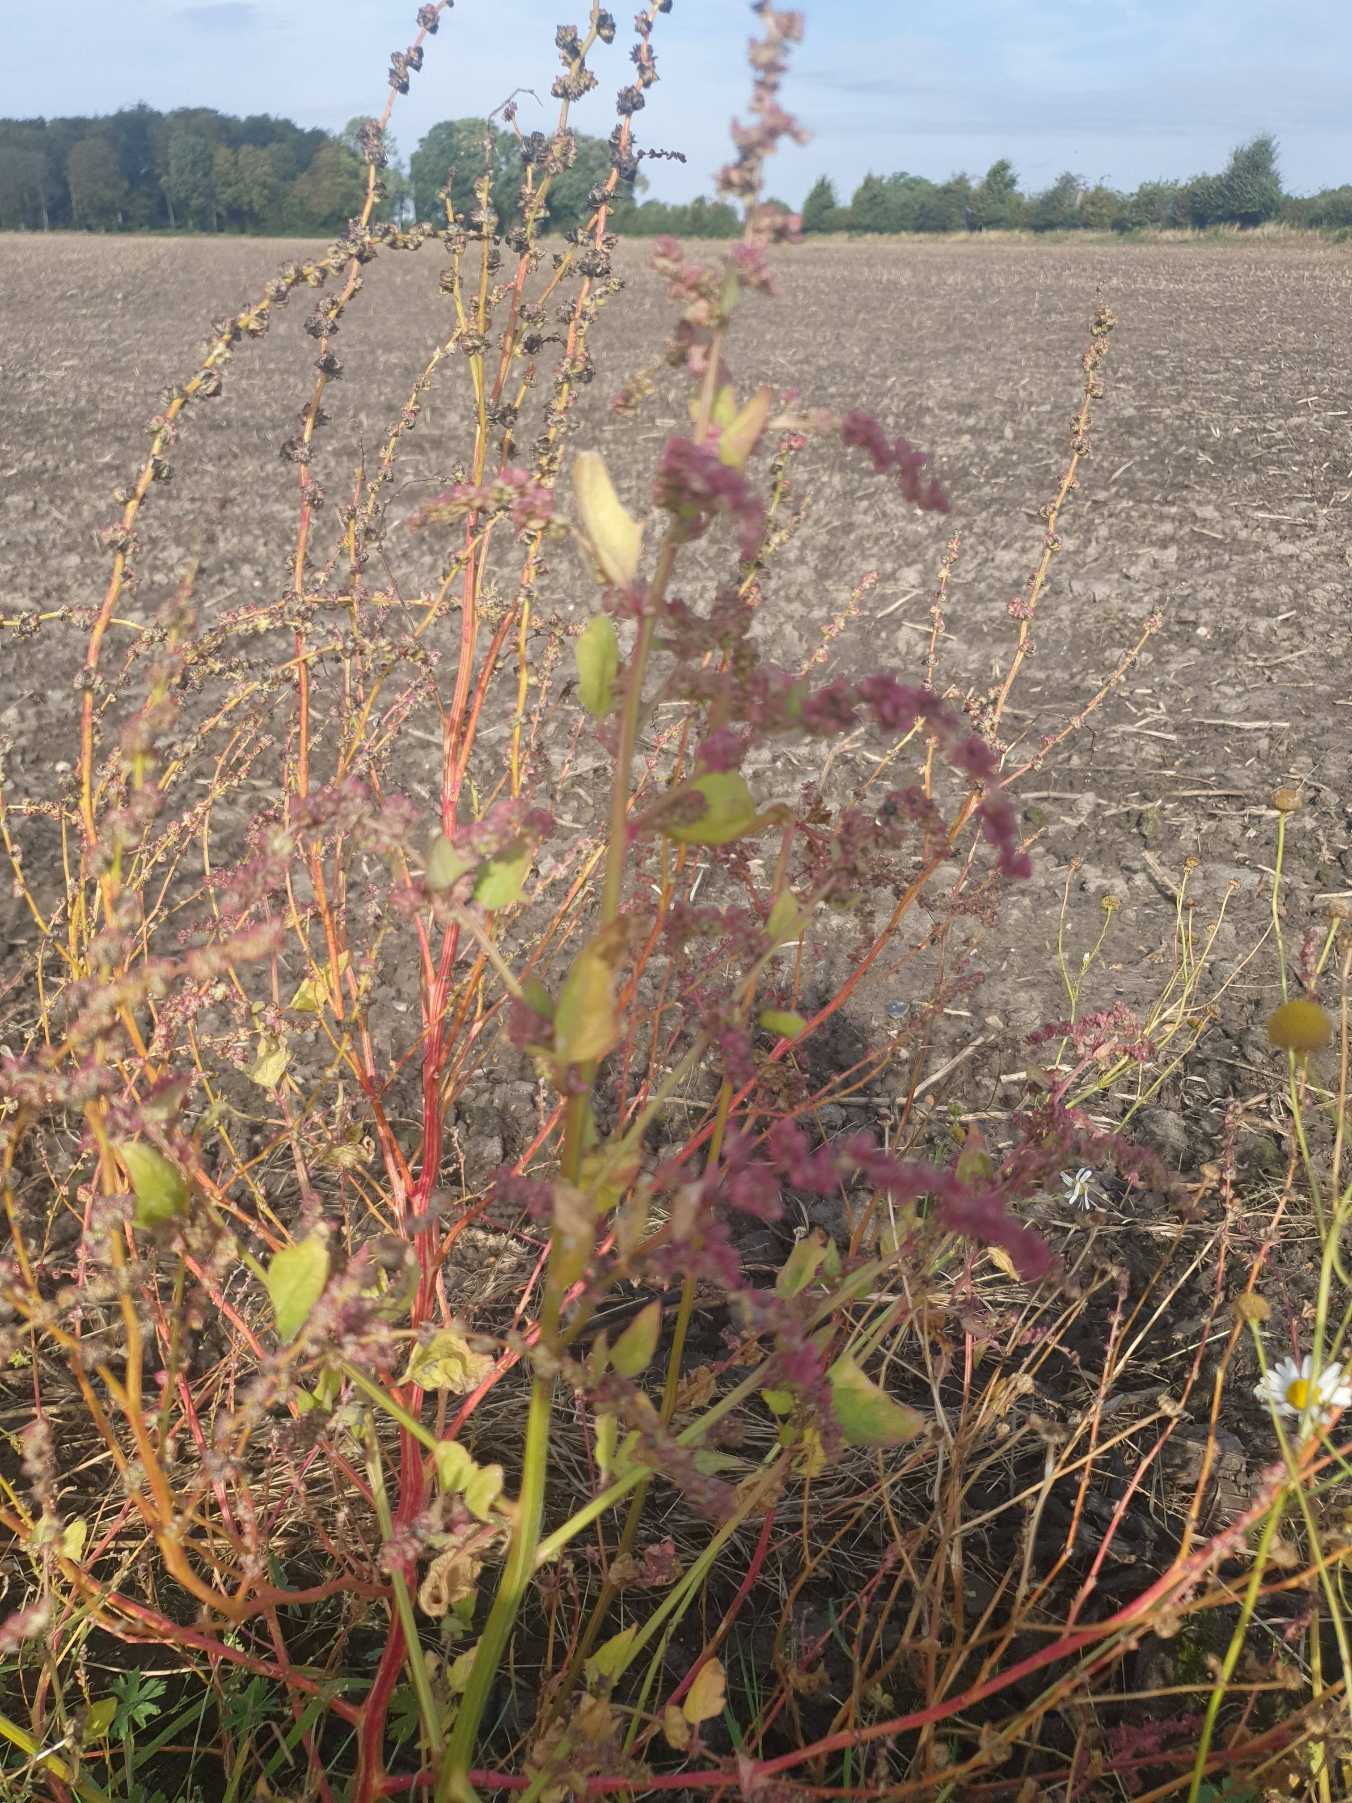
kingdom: Plantae
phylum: Tracheophyta
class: Magnoliopsida
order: Caryophyllales
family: Amaranthaceae
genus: Atriplex
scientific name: Atriplex prostrata
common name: Spyd-mælde
